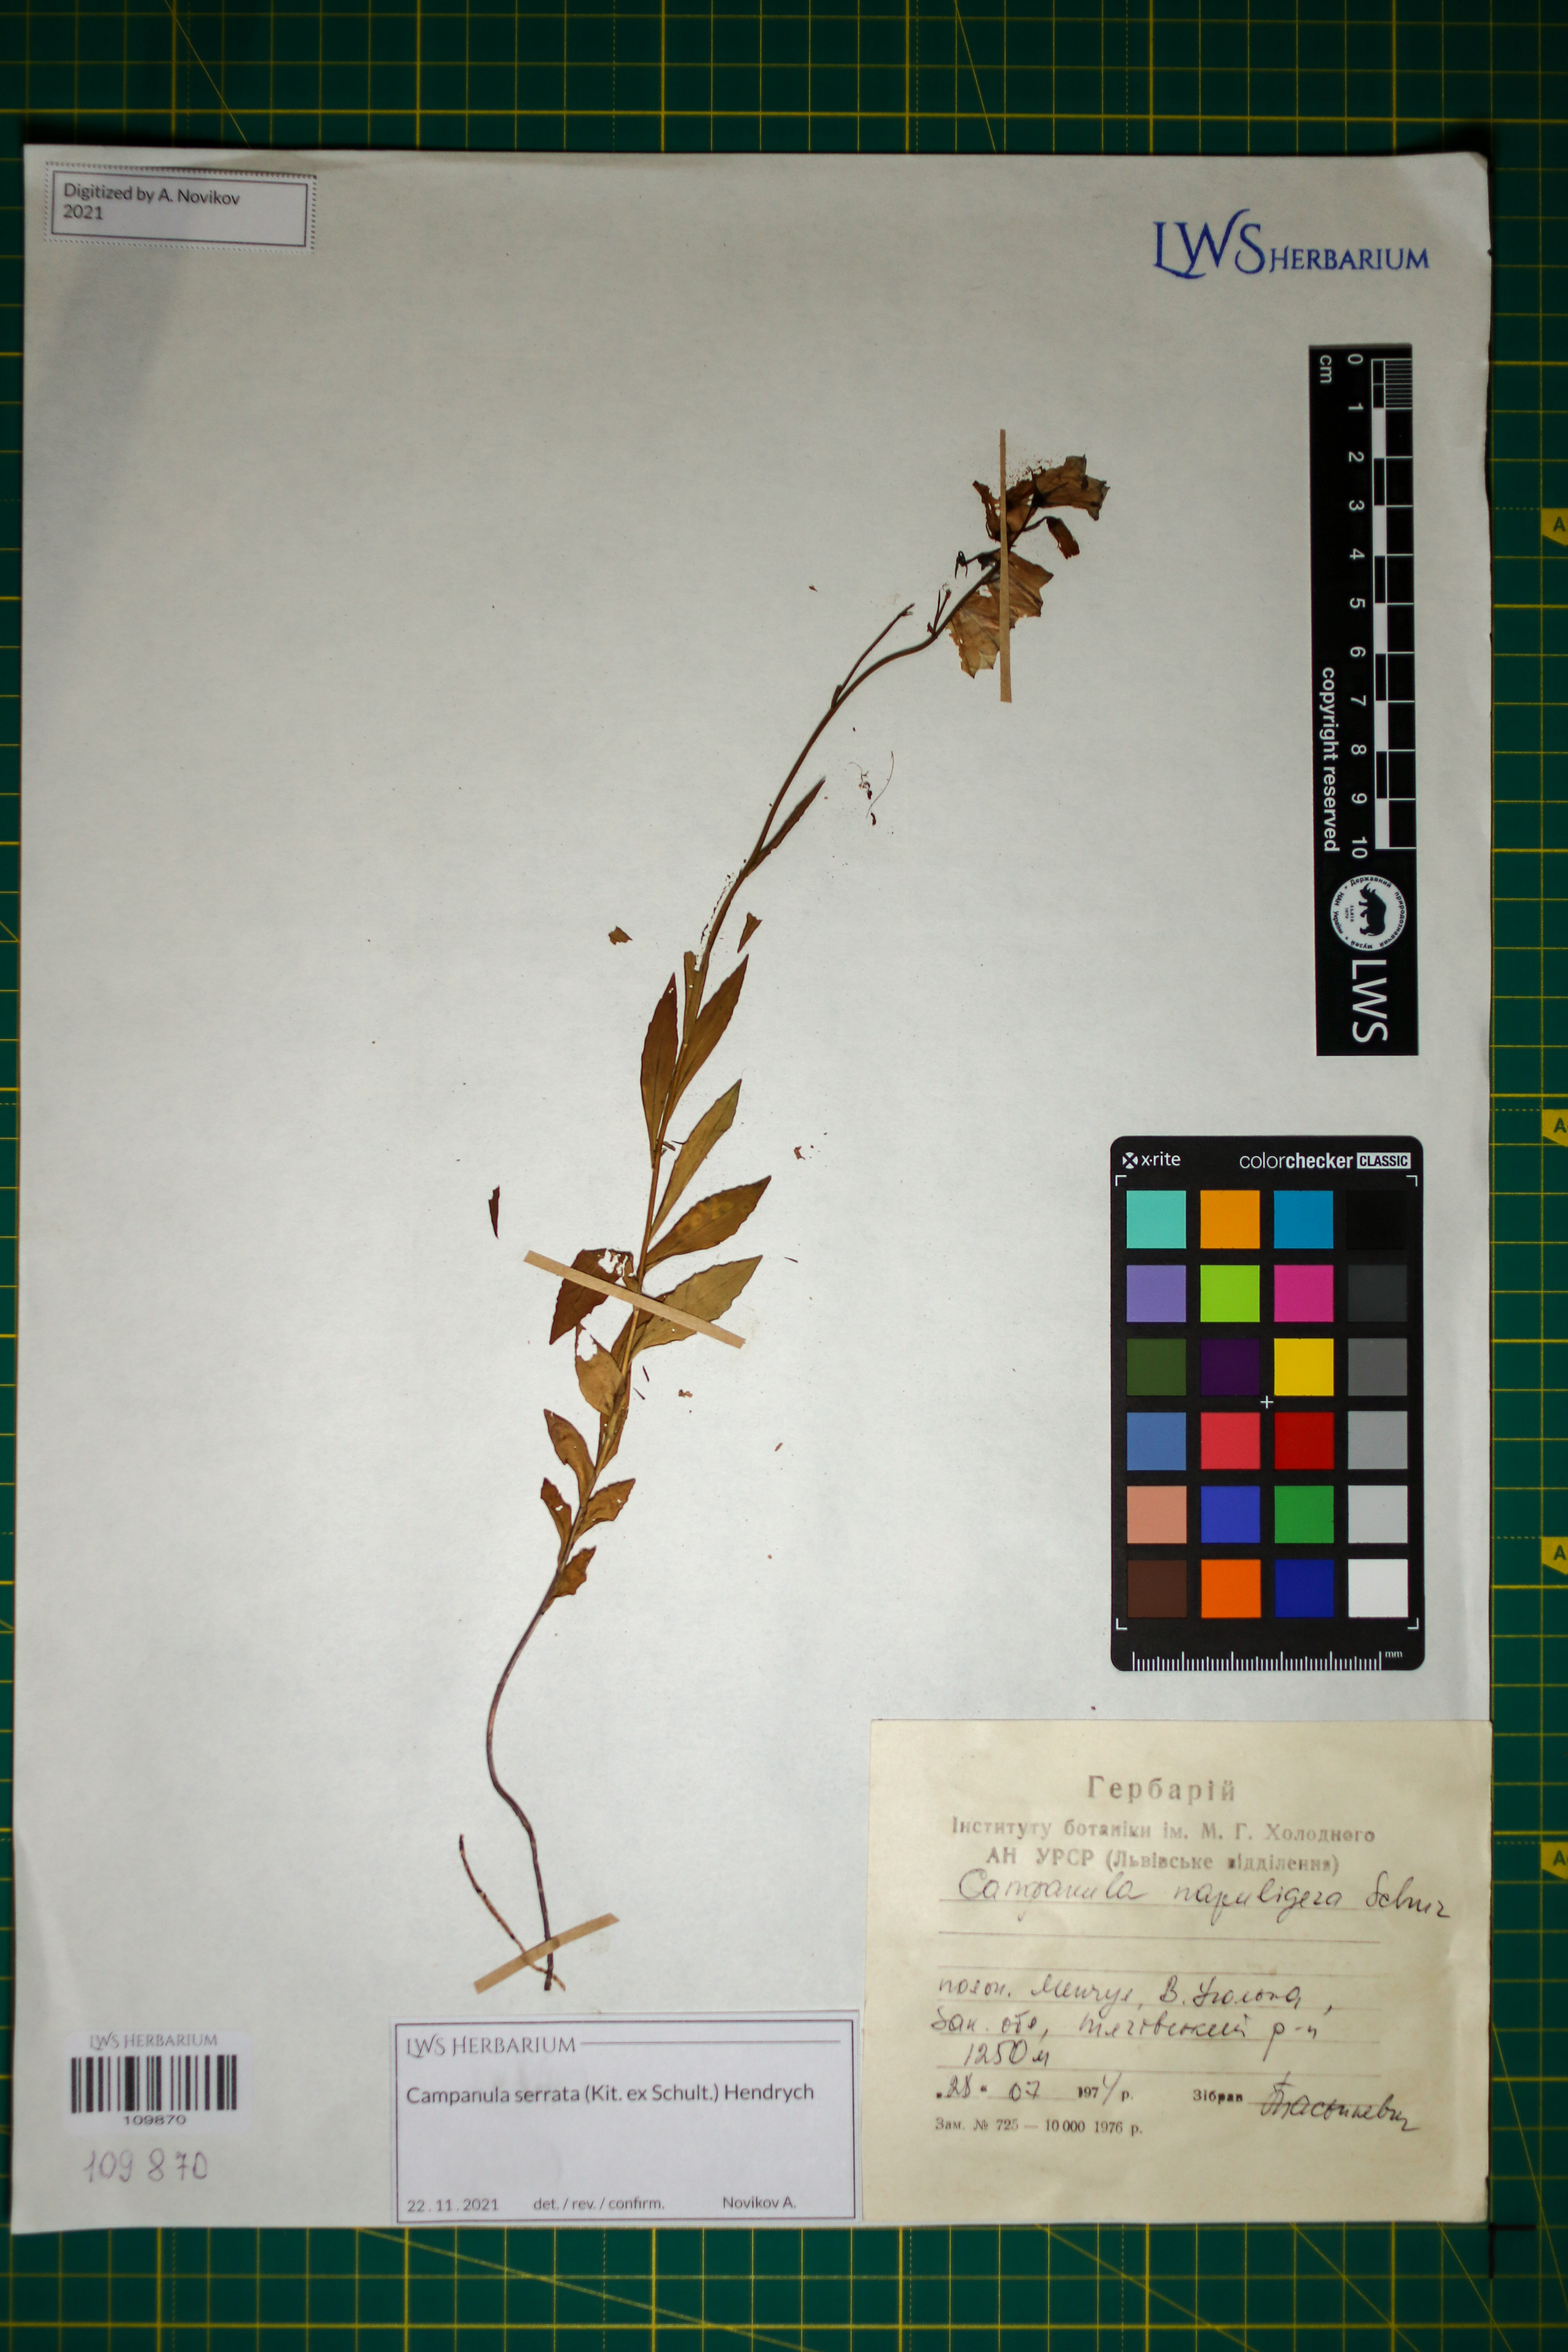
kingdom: Plantae
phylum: Tracheophyta
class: Magnoliopsida
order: Asterales
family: Campanulaceae
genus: Campanula
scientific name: Campanula serrata
